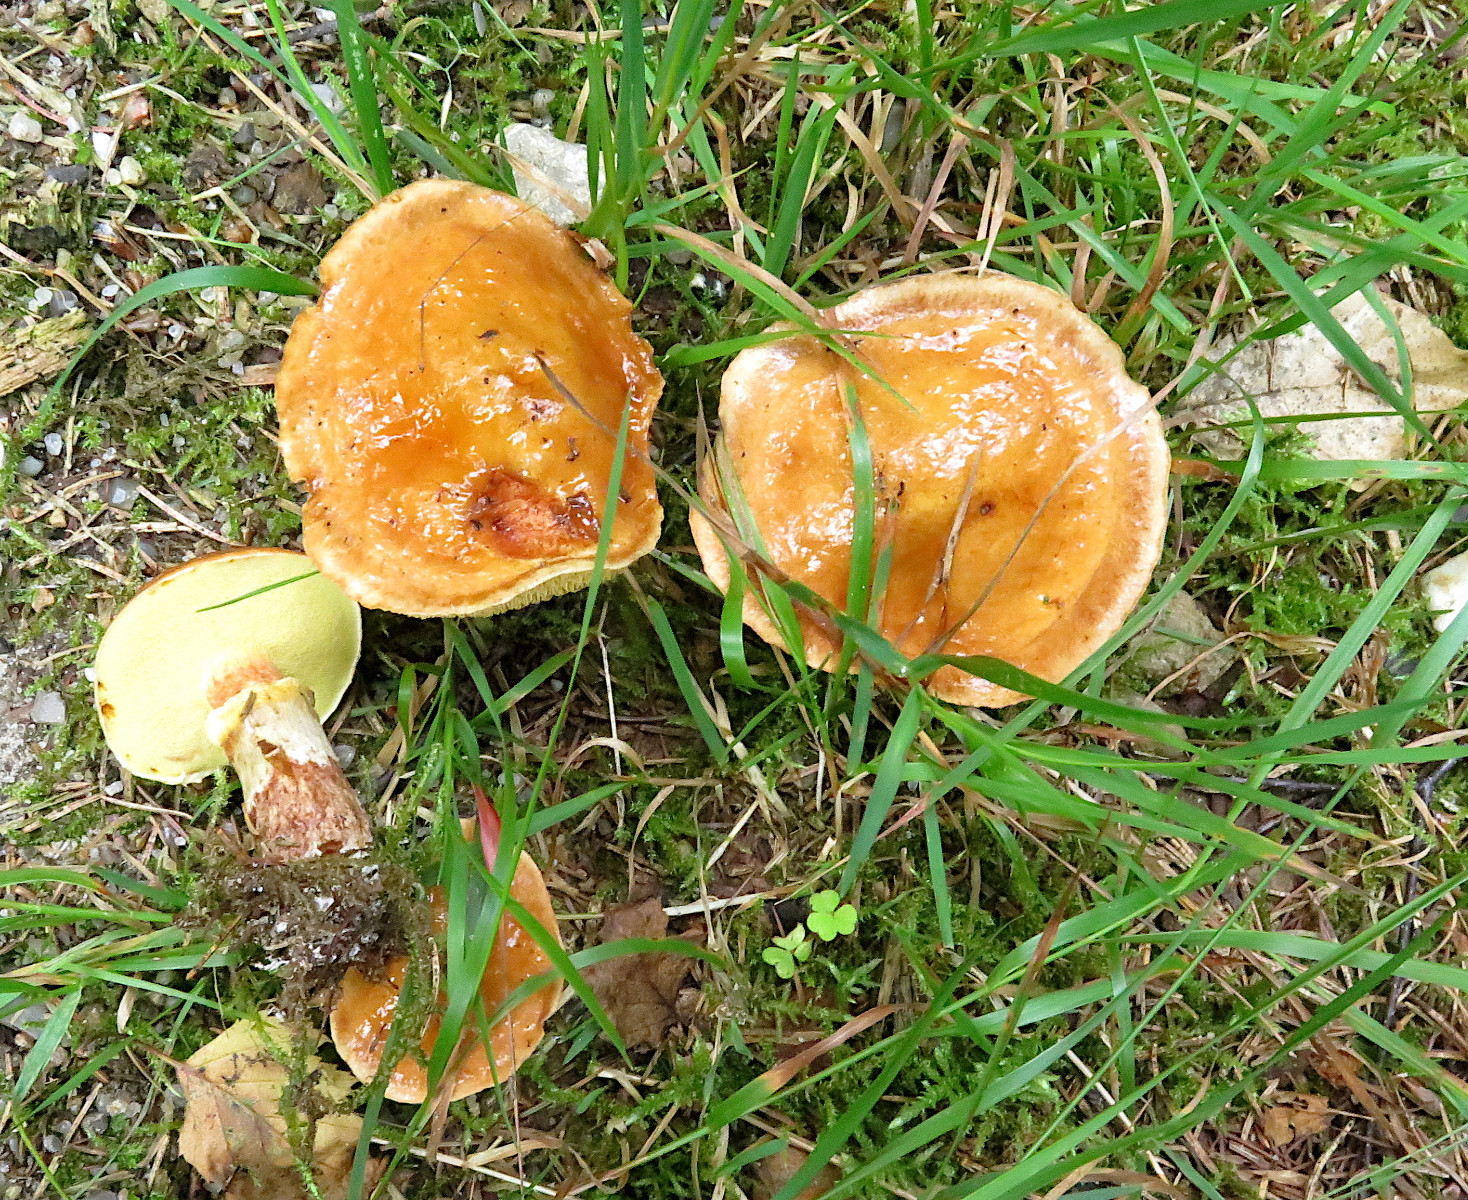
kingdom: Fungi
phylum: Basidiomycota
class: Agaricomycetes
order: Boletales
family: Suillaceae
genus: Suillus
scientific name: Suillus grevillei
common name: lærke-slimrørhat
